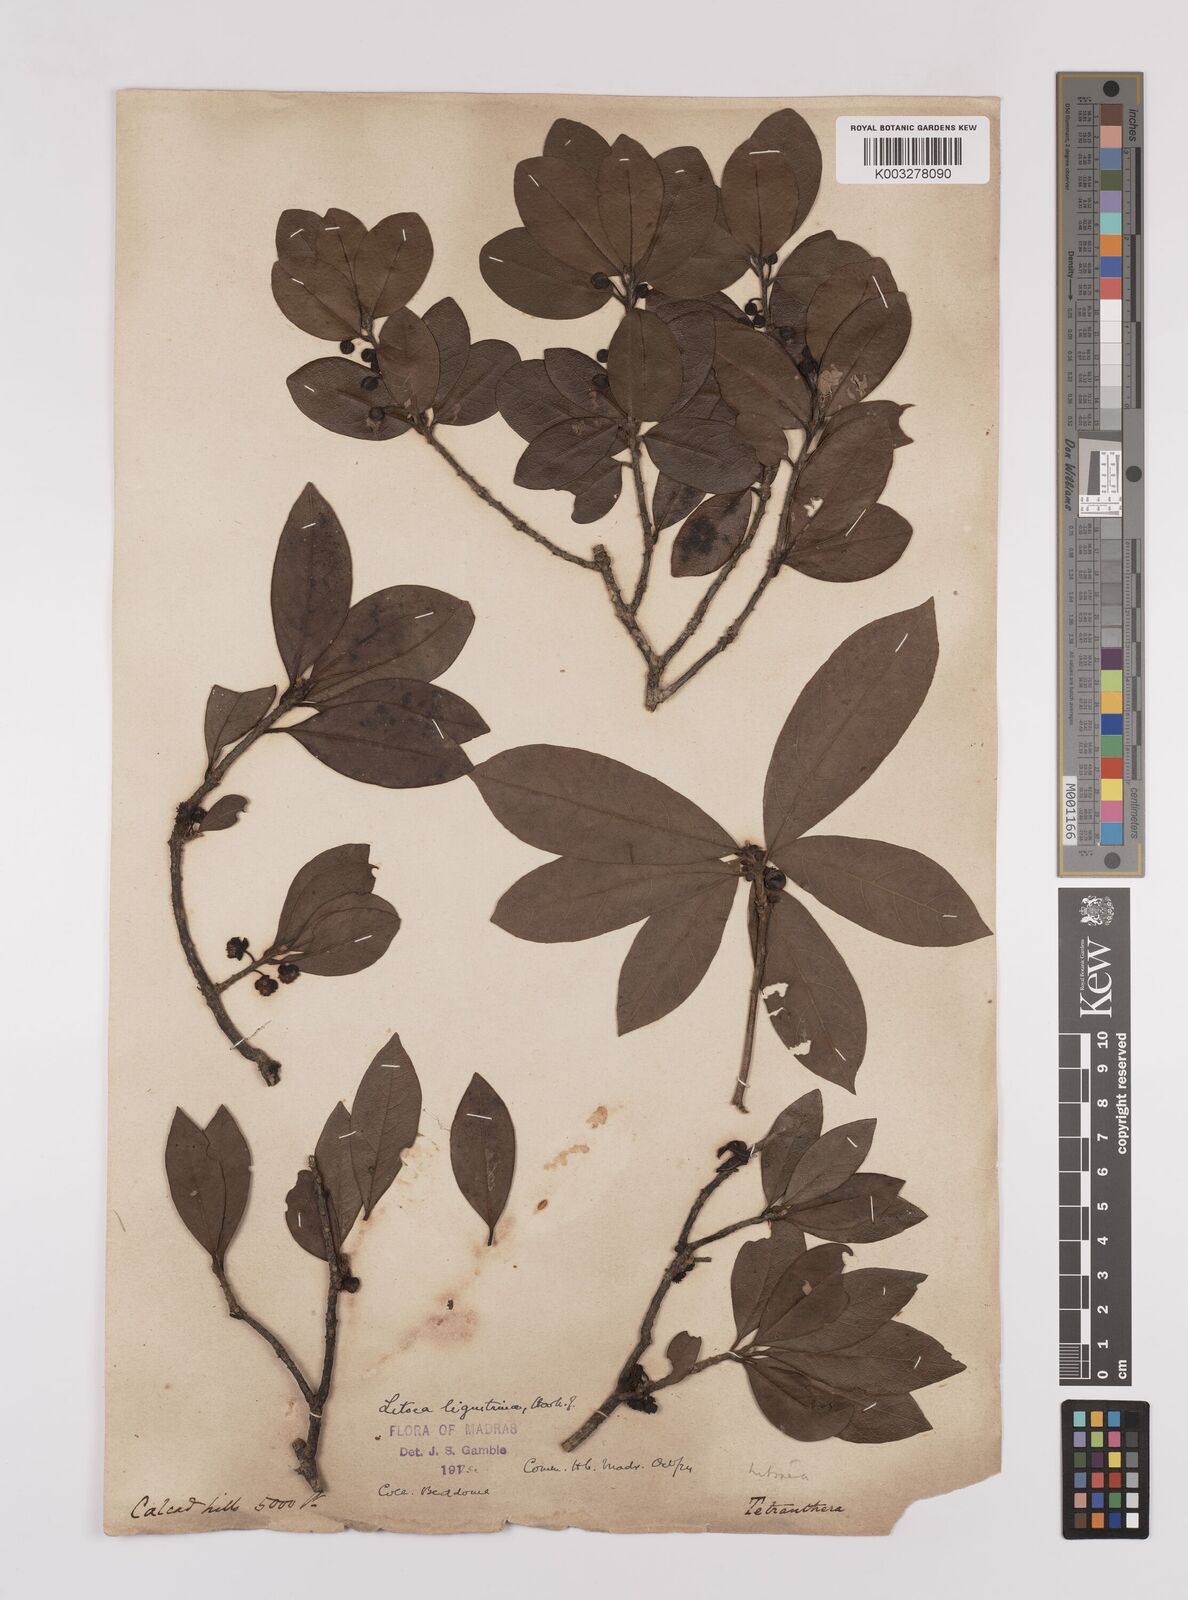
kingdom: Plantae
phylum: Tracheophyta
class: Magnoliopsida
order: Laurales
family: Lauraceae
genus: Litsea
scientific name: Litsea ligustrina
